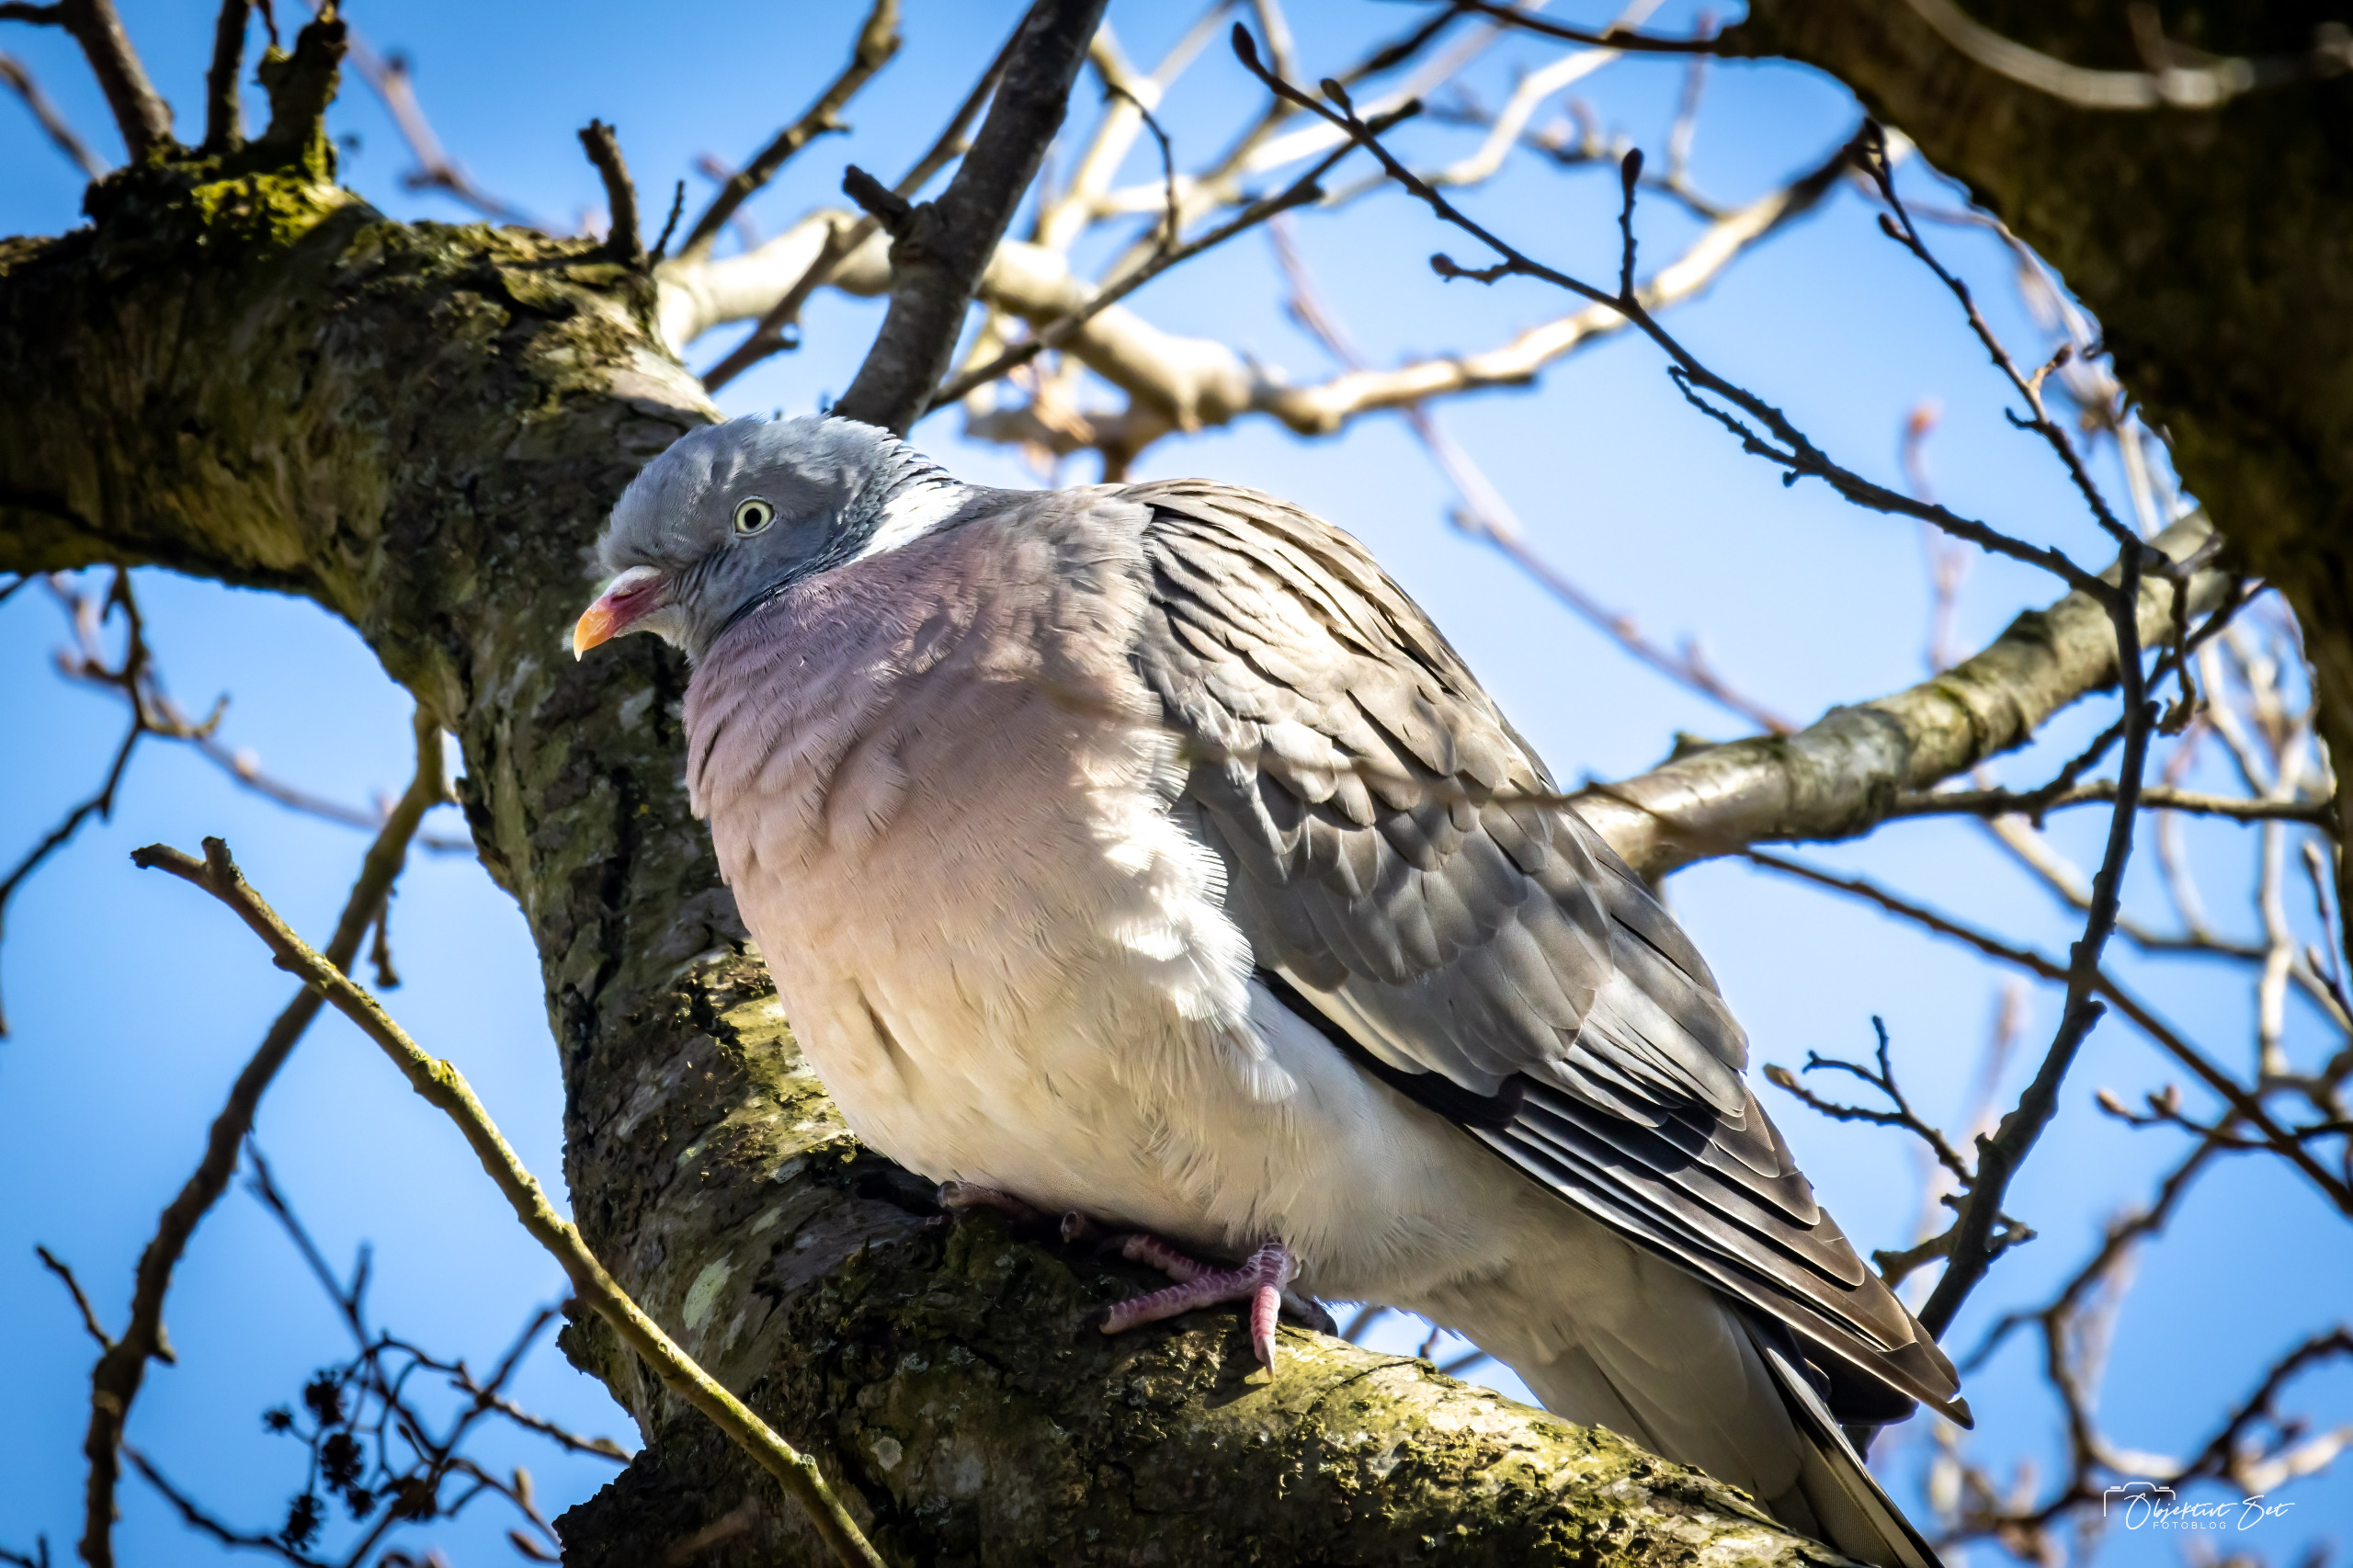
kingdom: Animalia
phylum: Chordata
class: Aves
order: Columbiformes
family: Columbidae
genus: Columba
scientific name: Columba palumbus
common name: Ringdue
